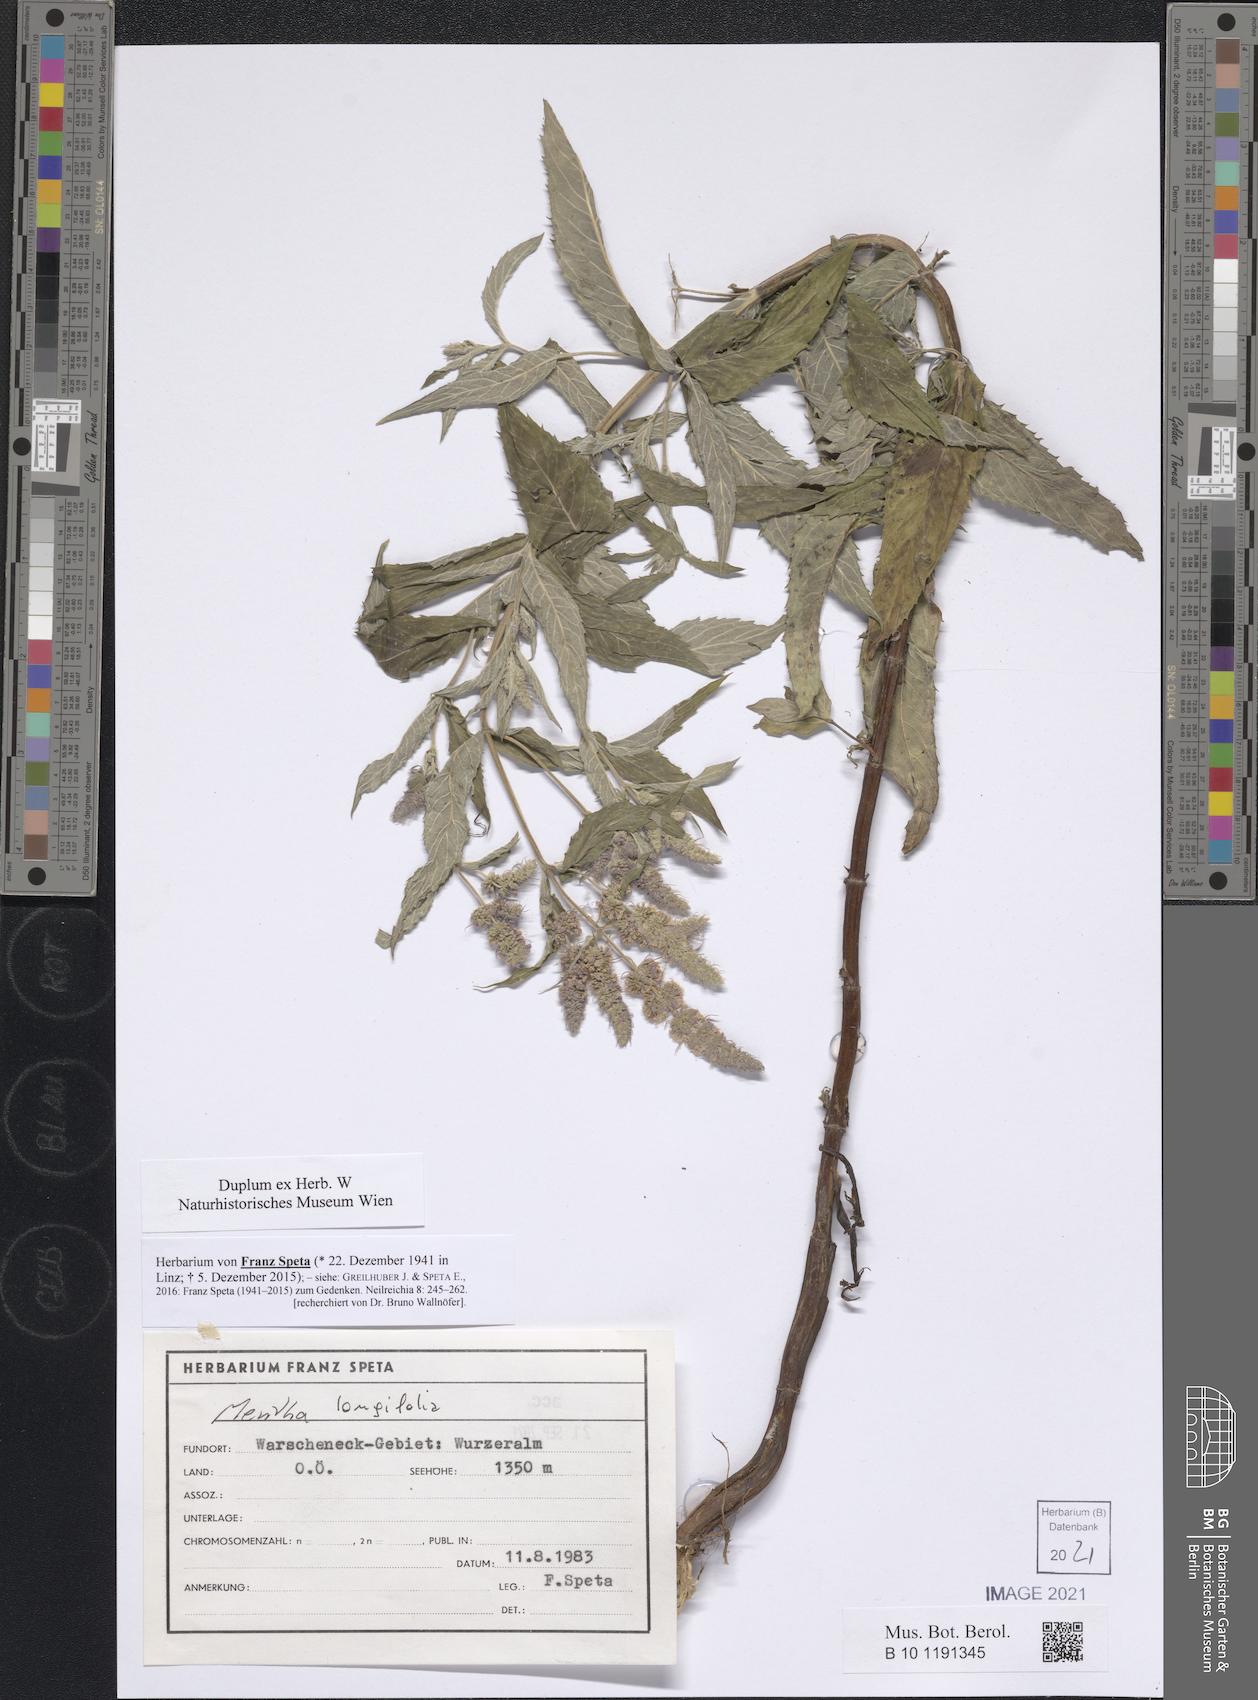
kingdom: Plantae
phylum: Tracheophyta
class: Magnoliopsida
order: Lamiales
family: Lamiaceae
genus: Mentha
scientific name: Mentha longifolia
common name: Horse mint
